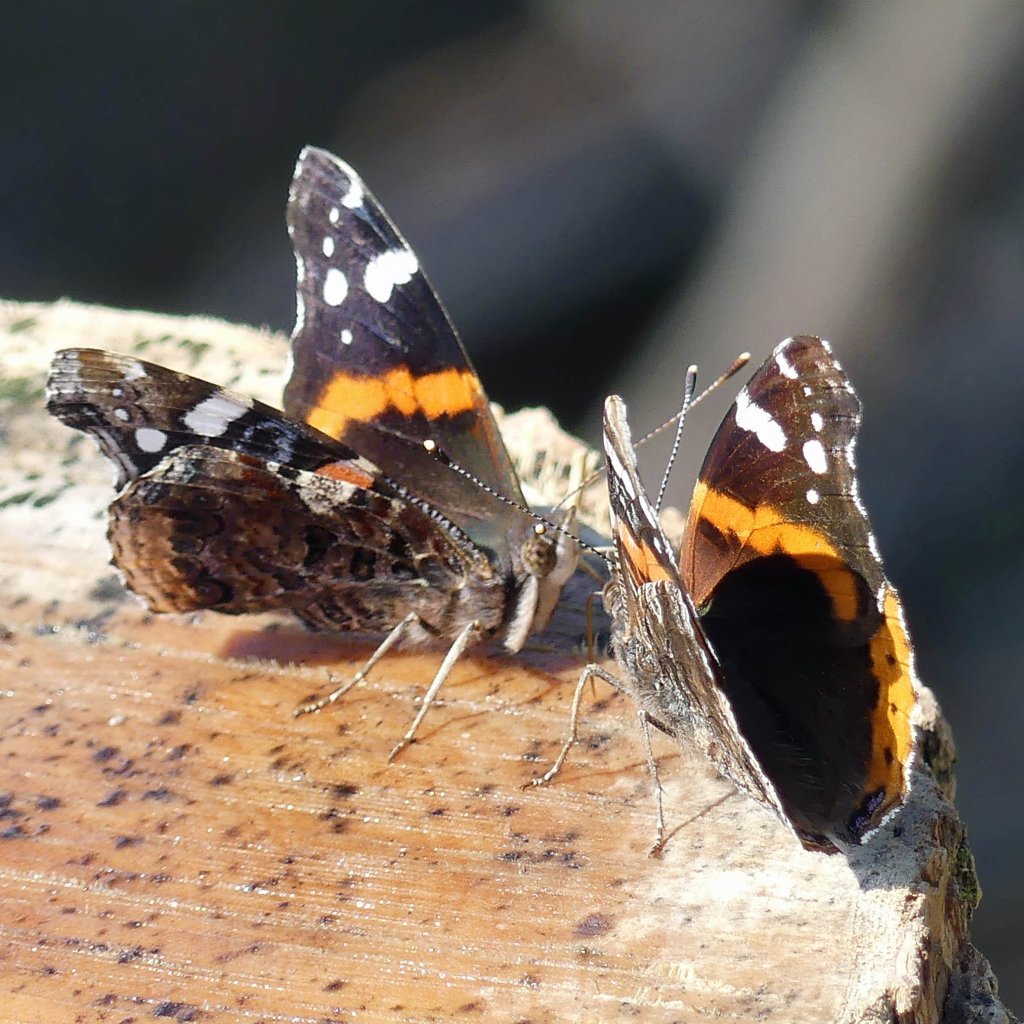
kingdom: Animalia
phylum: Arthropoda
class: Insecta
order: Lepidoptera
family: Nymphalidae
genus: Vanessa
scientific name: Vanessa atalanta
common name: Red Admiral
